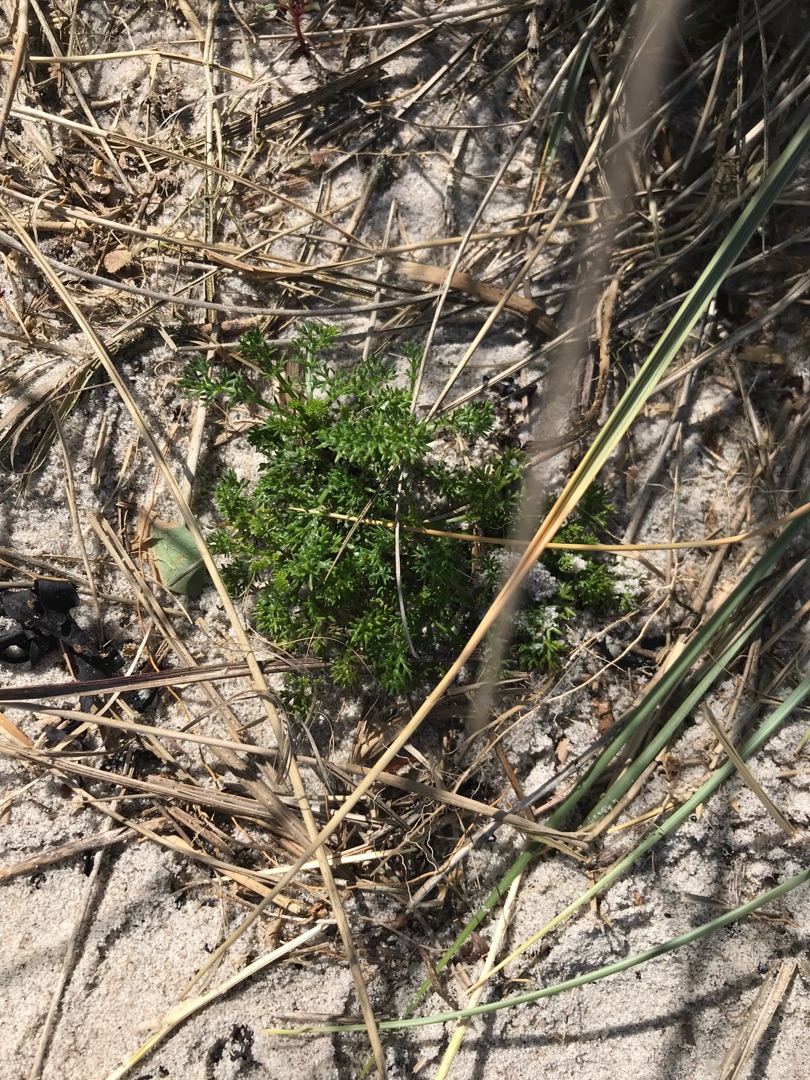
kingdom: Plantae
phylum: Tracheophyta
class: Magnoliopsida
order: Asterales
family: Asteraceae
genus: Tripleurospermum
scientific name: Tripleurospermum maritimum
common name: Strand-kamille
